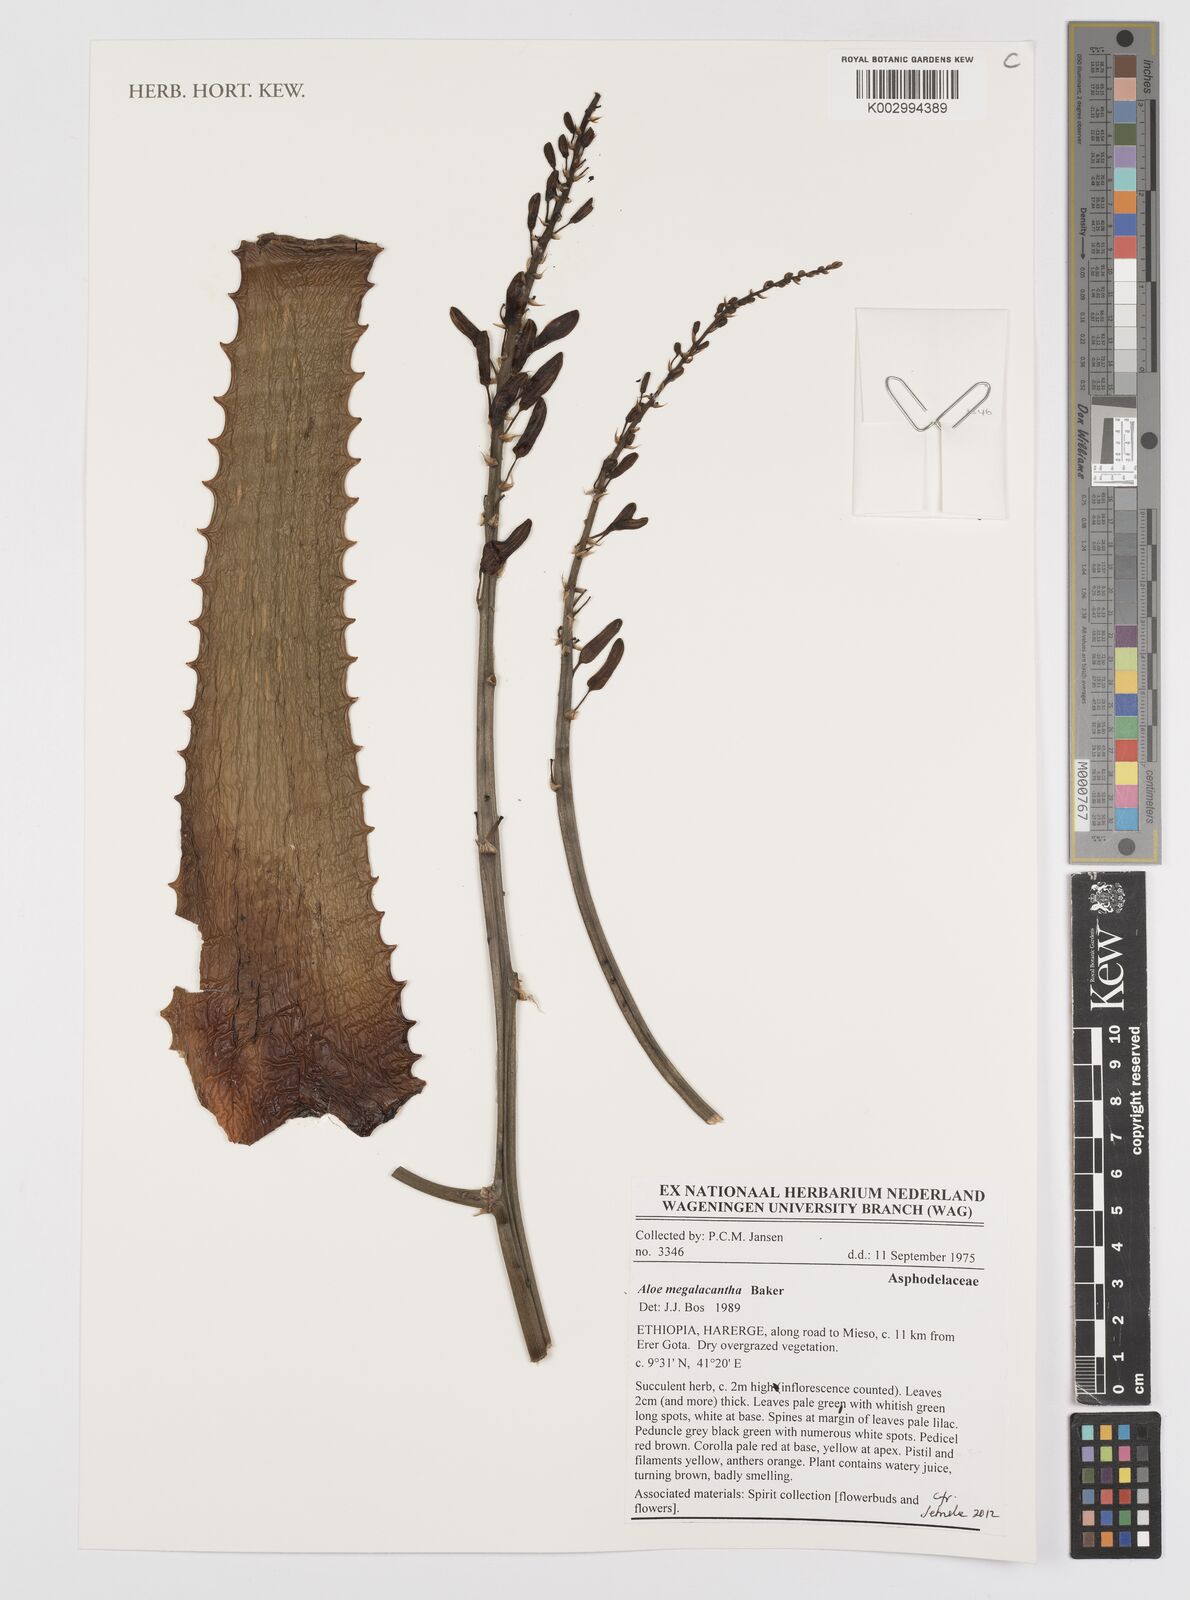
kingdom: Plantae
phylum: Tracheophyta
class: Liliopsida
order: Asparagales
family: Asphodelaceae
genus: Aloe
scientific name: Aloe megalacantha
